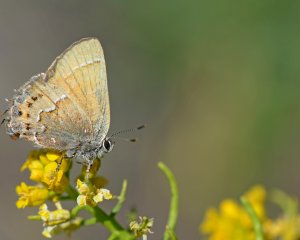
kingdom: Animalia
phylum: Arthropoda
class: Insecta
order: Lepidoptera
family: Lycaenidae
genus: Callophrys
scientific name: Callophrys
